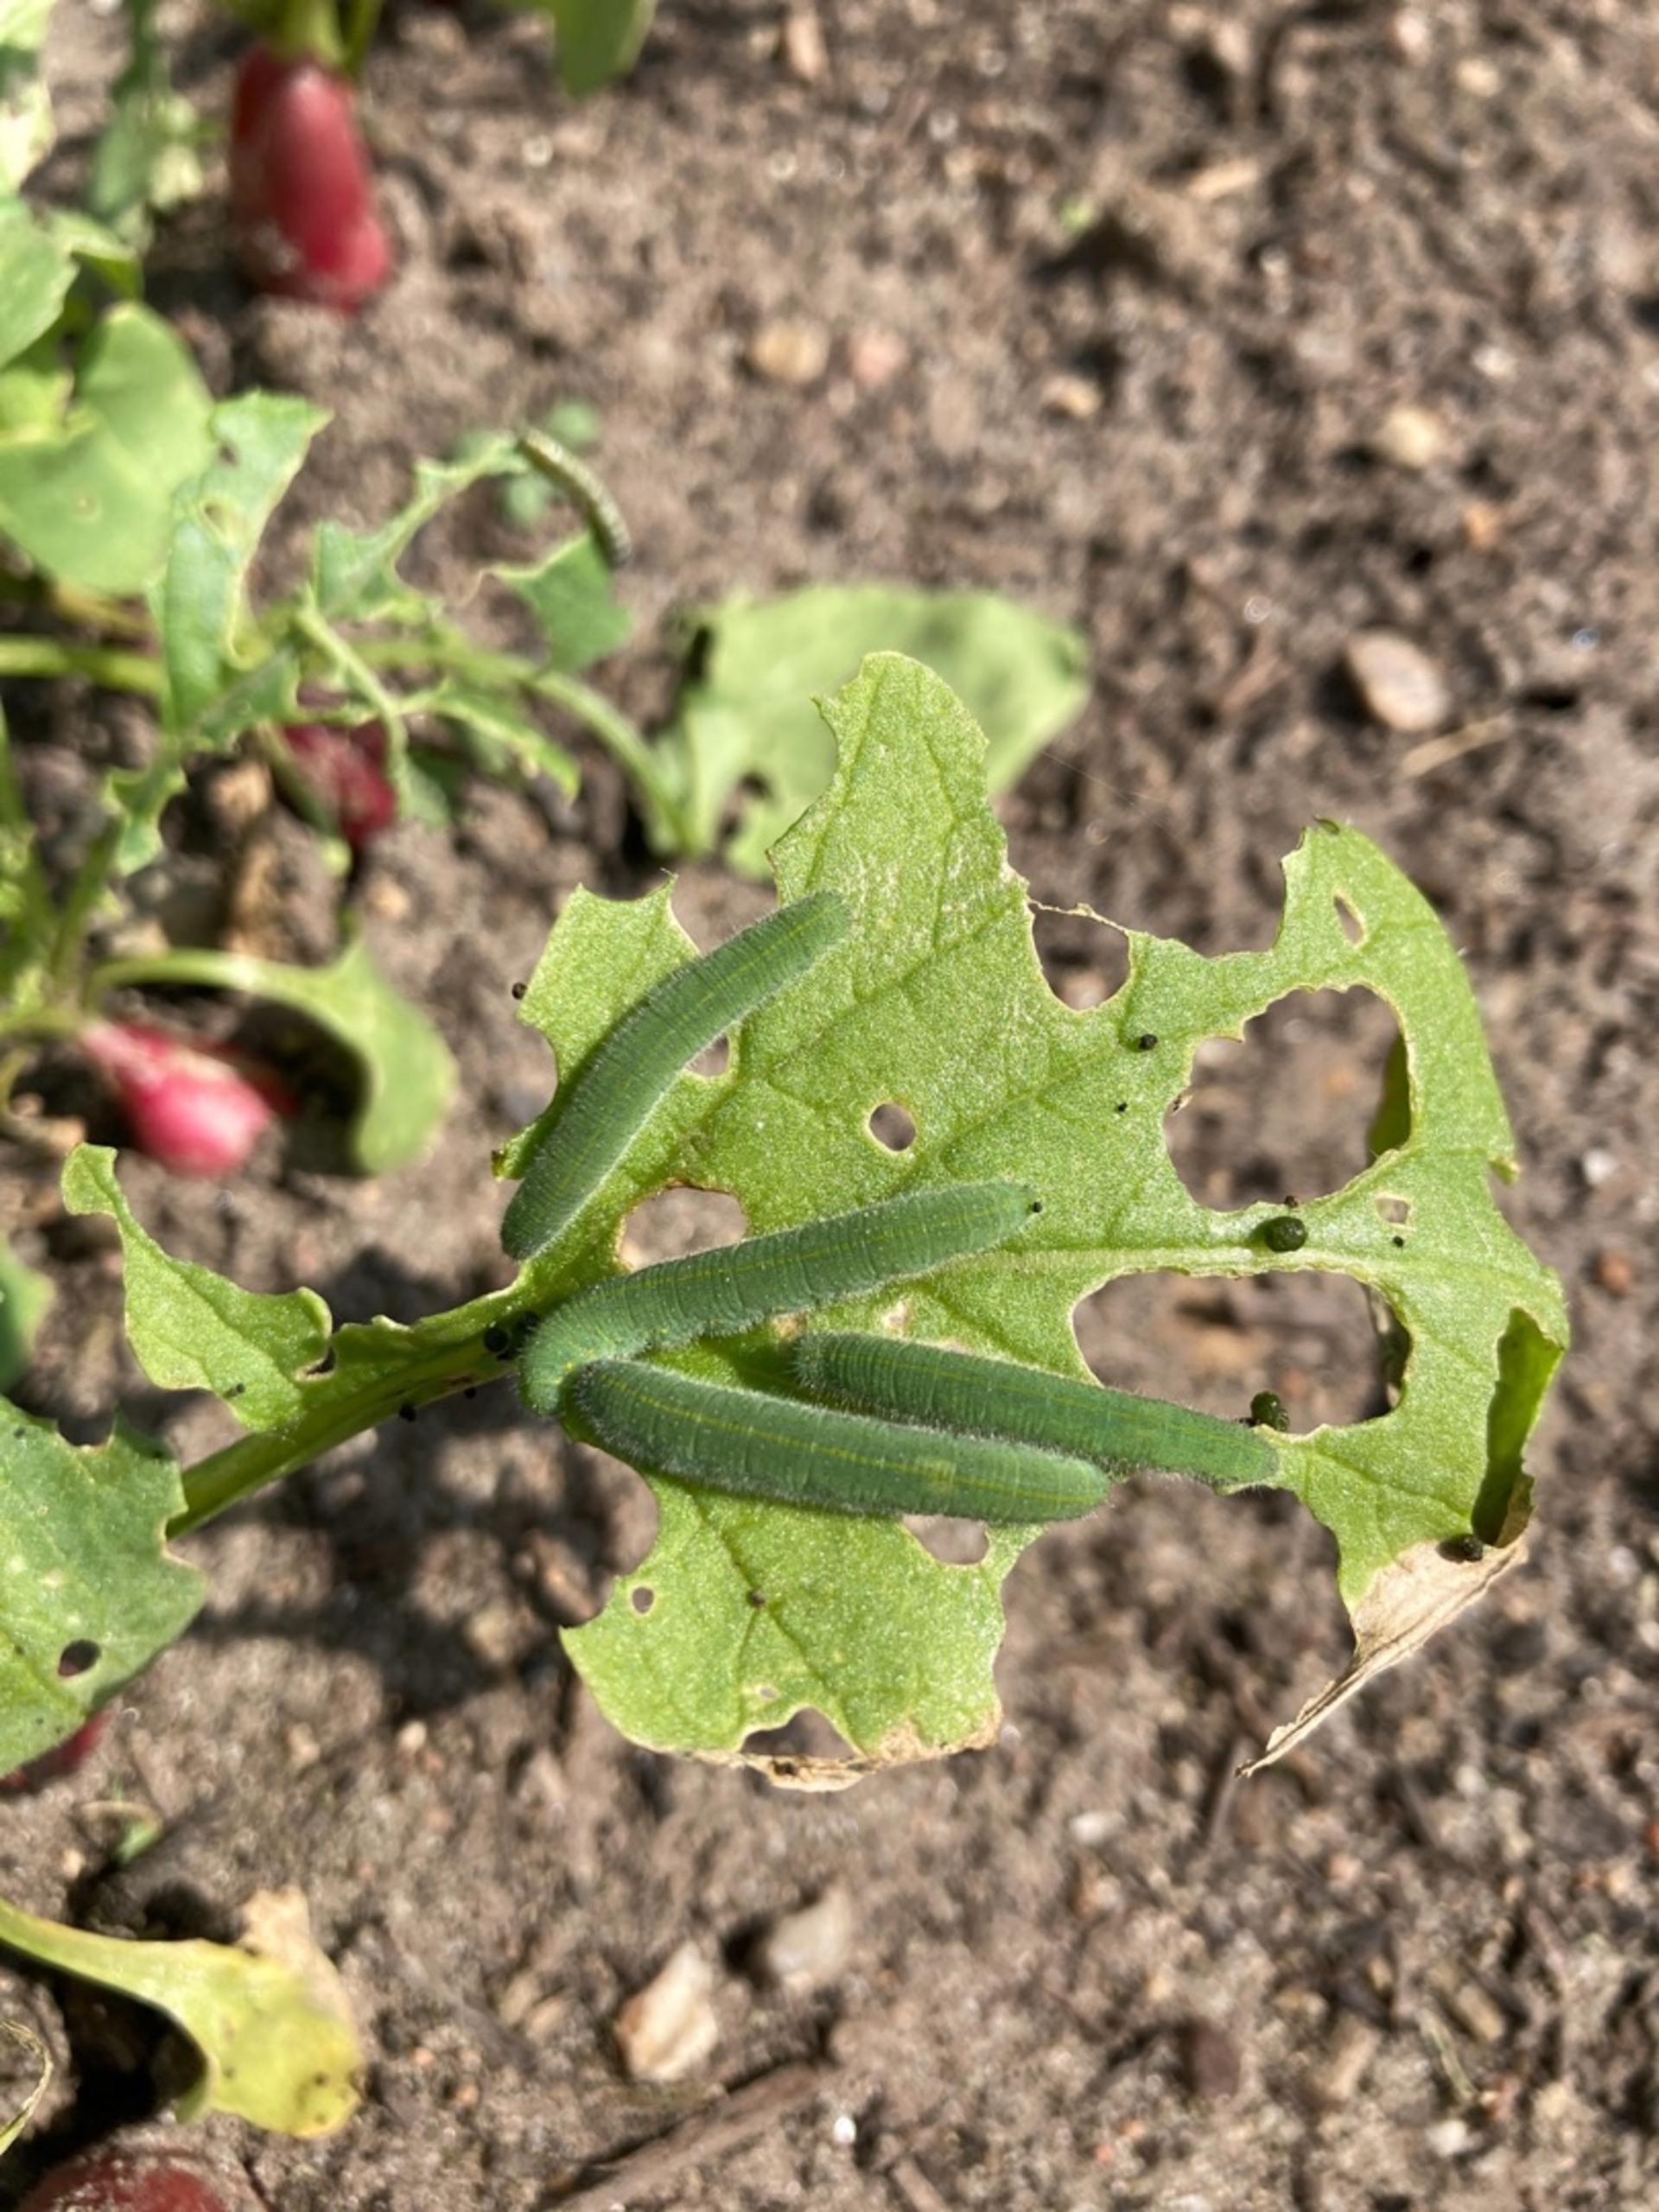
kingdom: Animalia
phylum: Arthropoda
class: Insecta
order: Lepidoptera
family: Pieridae
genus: Pieris
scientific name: Pieris rapae
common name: Lille kålsommerfugl
